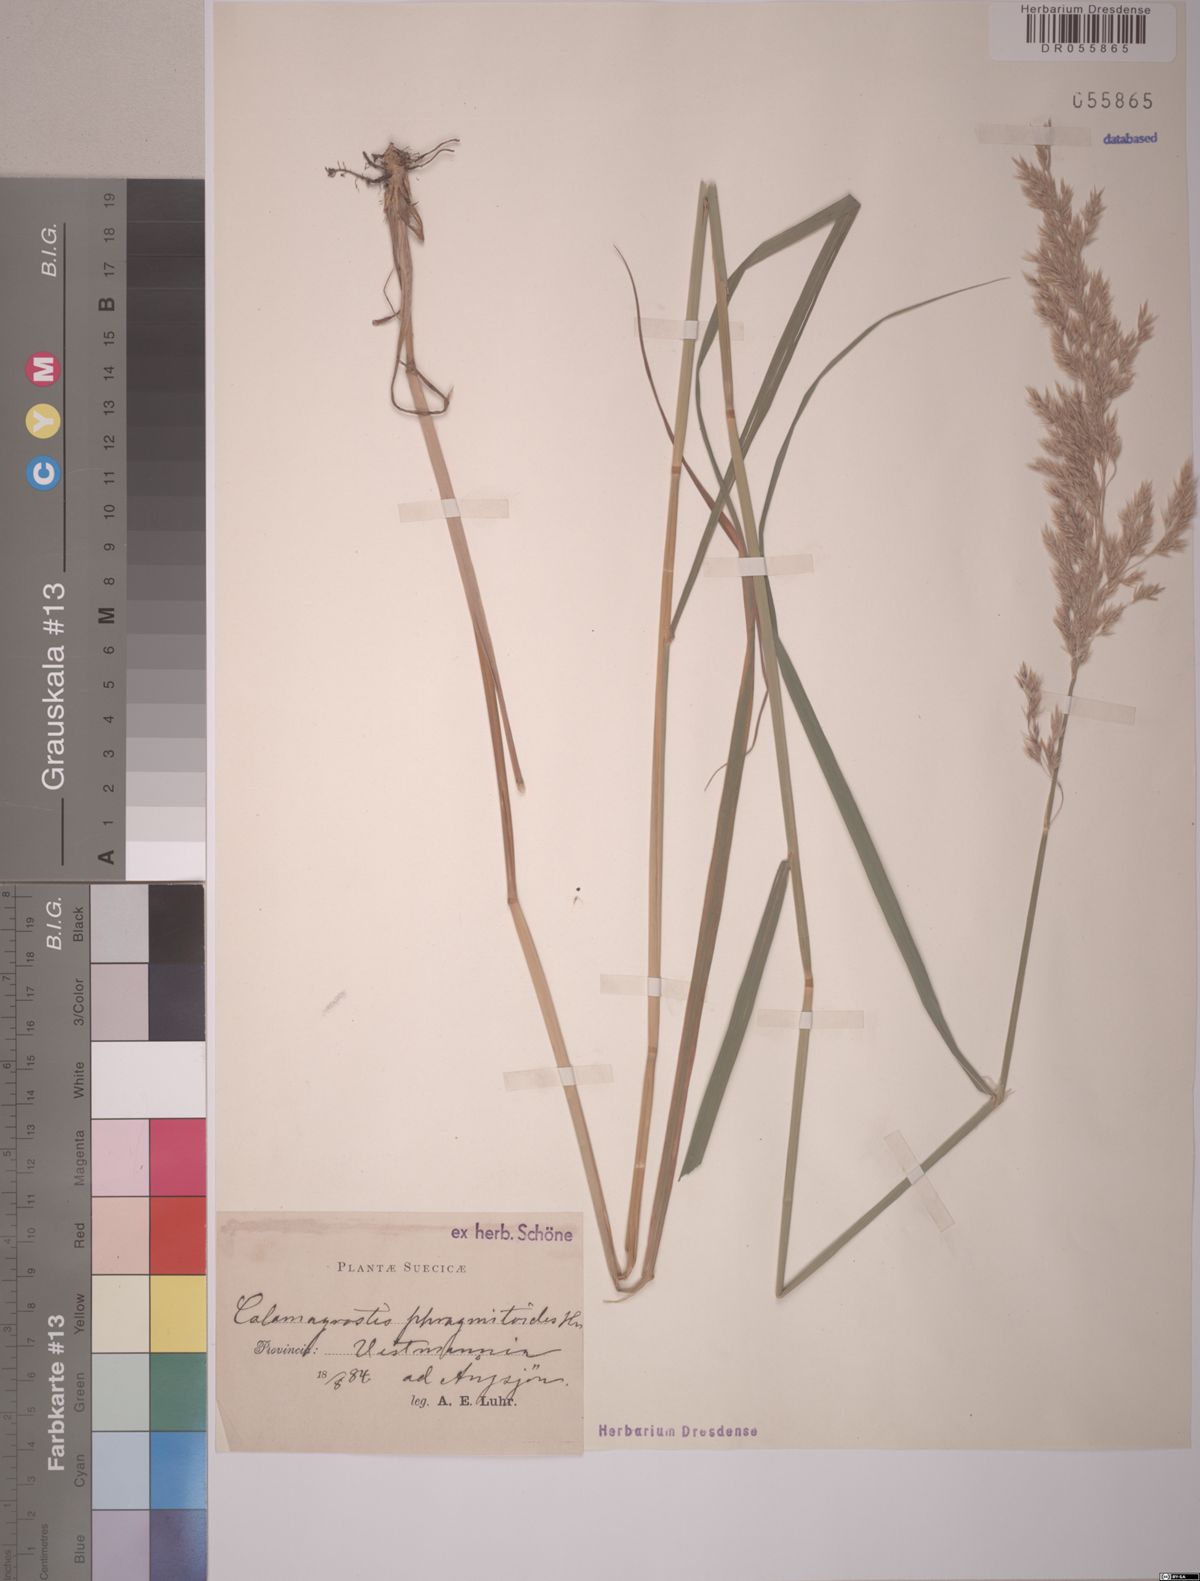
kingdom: Plantae
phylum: Tracheophyta
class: Liliopsida
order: Poales
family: Poaceae
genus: Calamagrostis
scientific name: Calamagrostis purpurea
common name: Scandinavian small-reed
